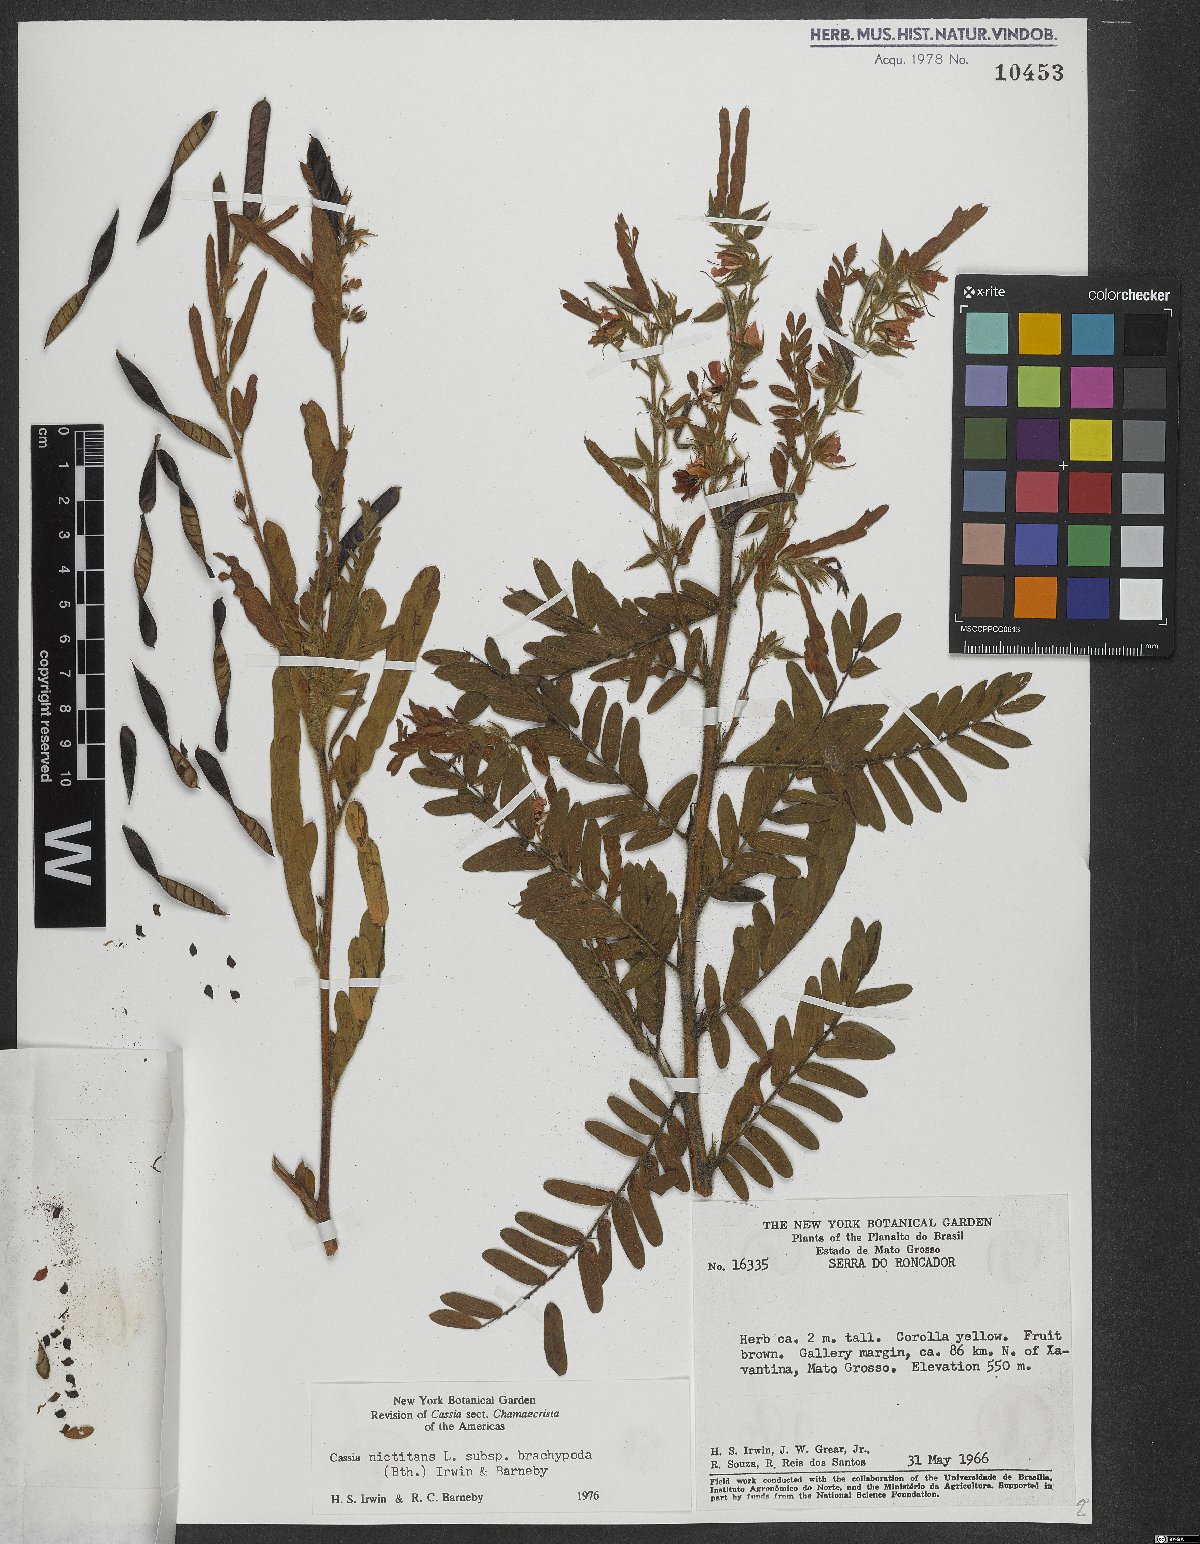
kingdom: Plantae
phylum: Tracheophyta
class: Magnoliopsida
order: Fabales
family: Fabaceae
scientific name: Fabaceae
